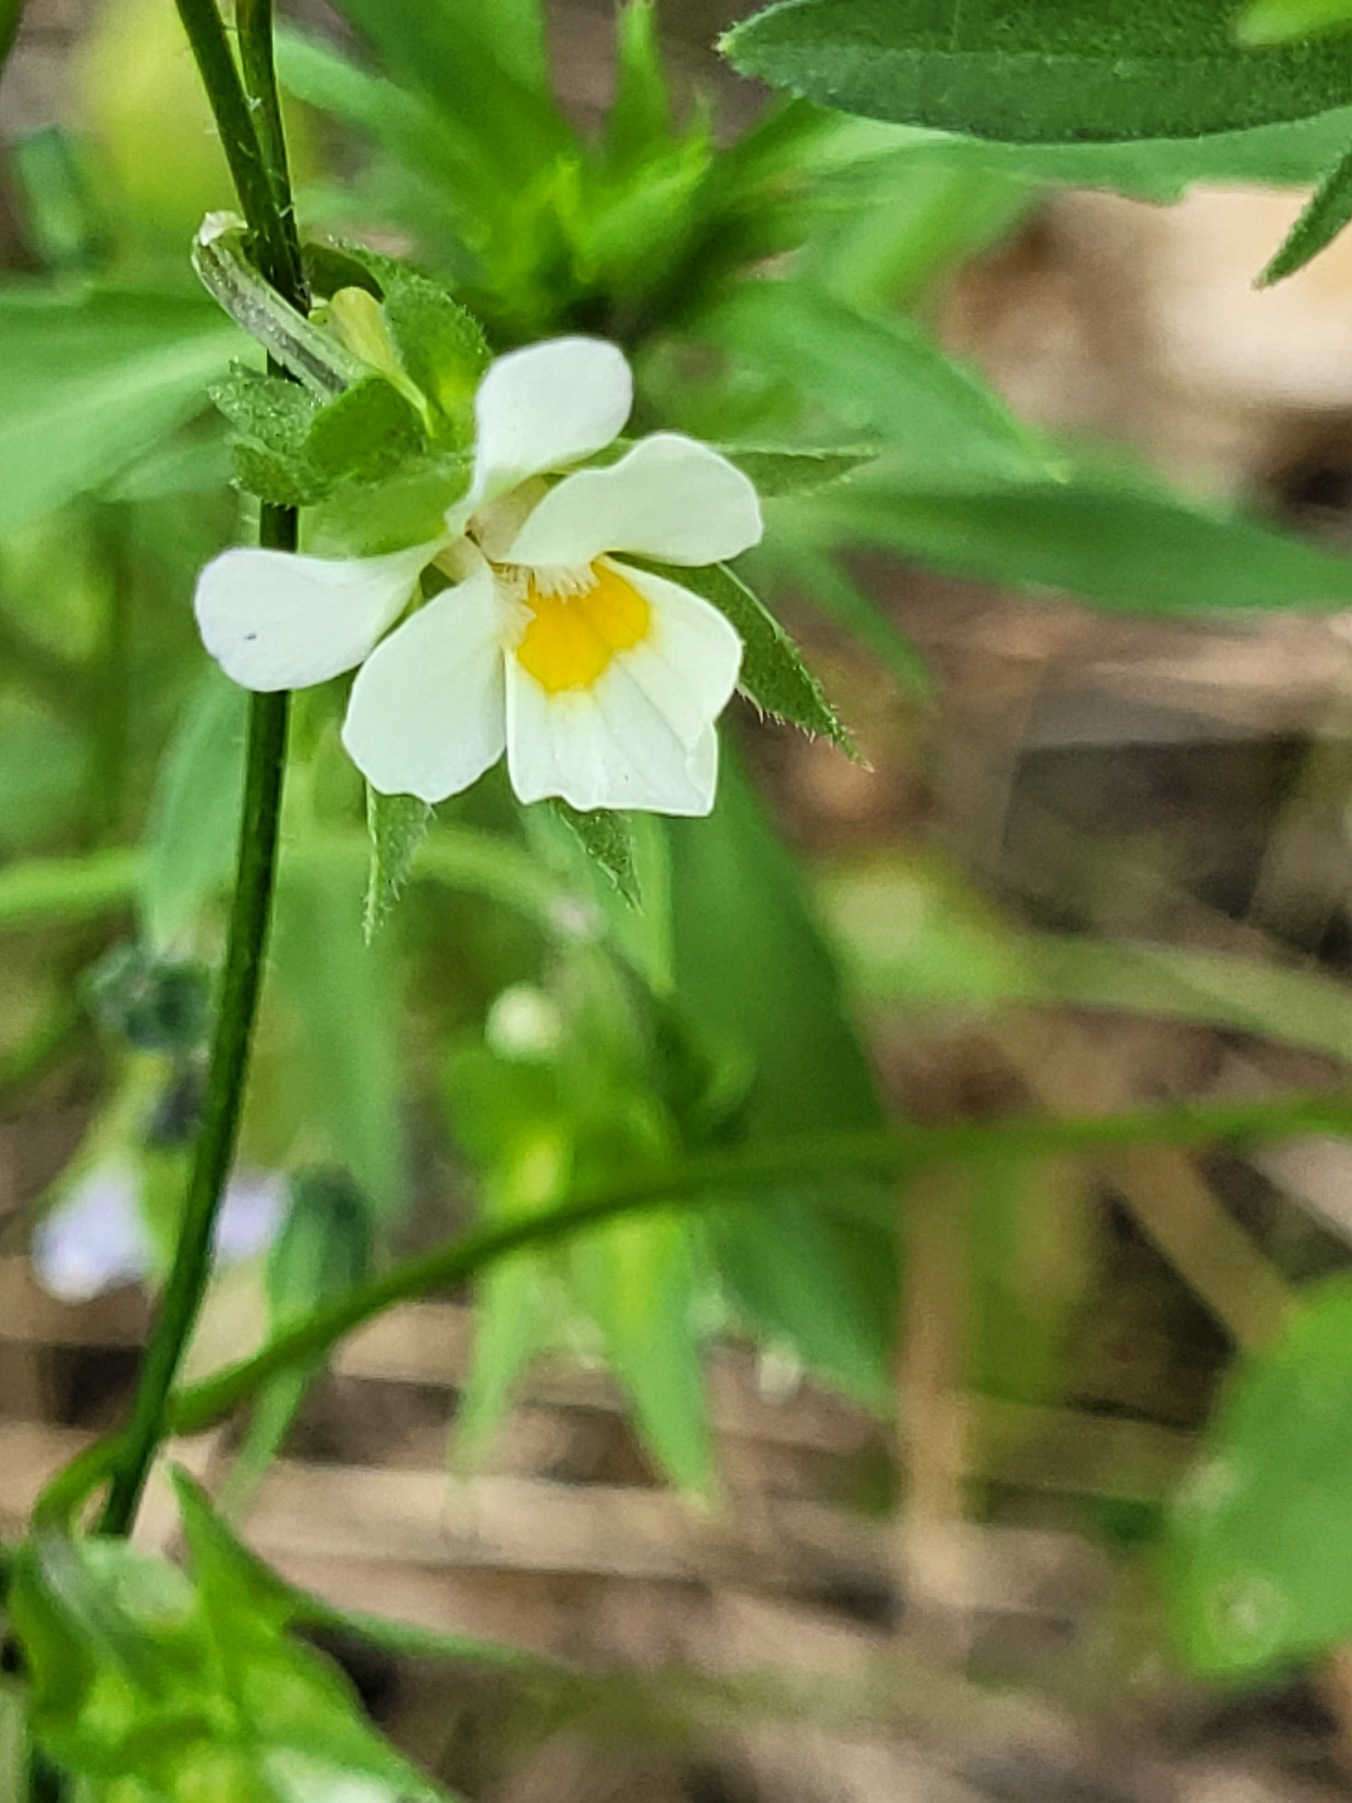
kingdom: Plantae
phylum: Tracheophyta
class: Magnoliopsida
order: Malpighiales
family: Violaceae
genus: Viola
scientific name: Viola arvensis
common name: Ager-stedmoderblomst
